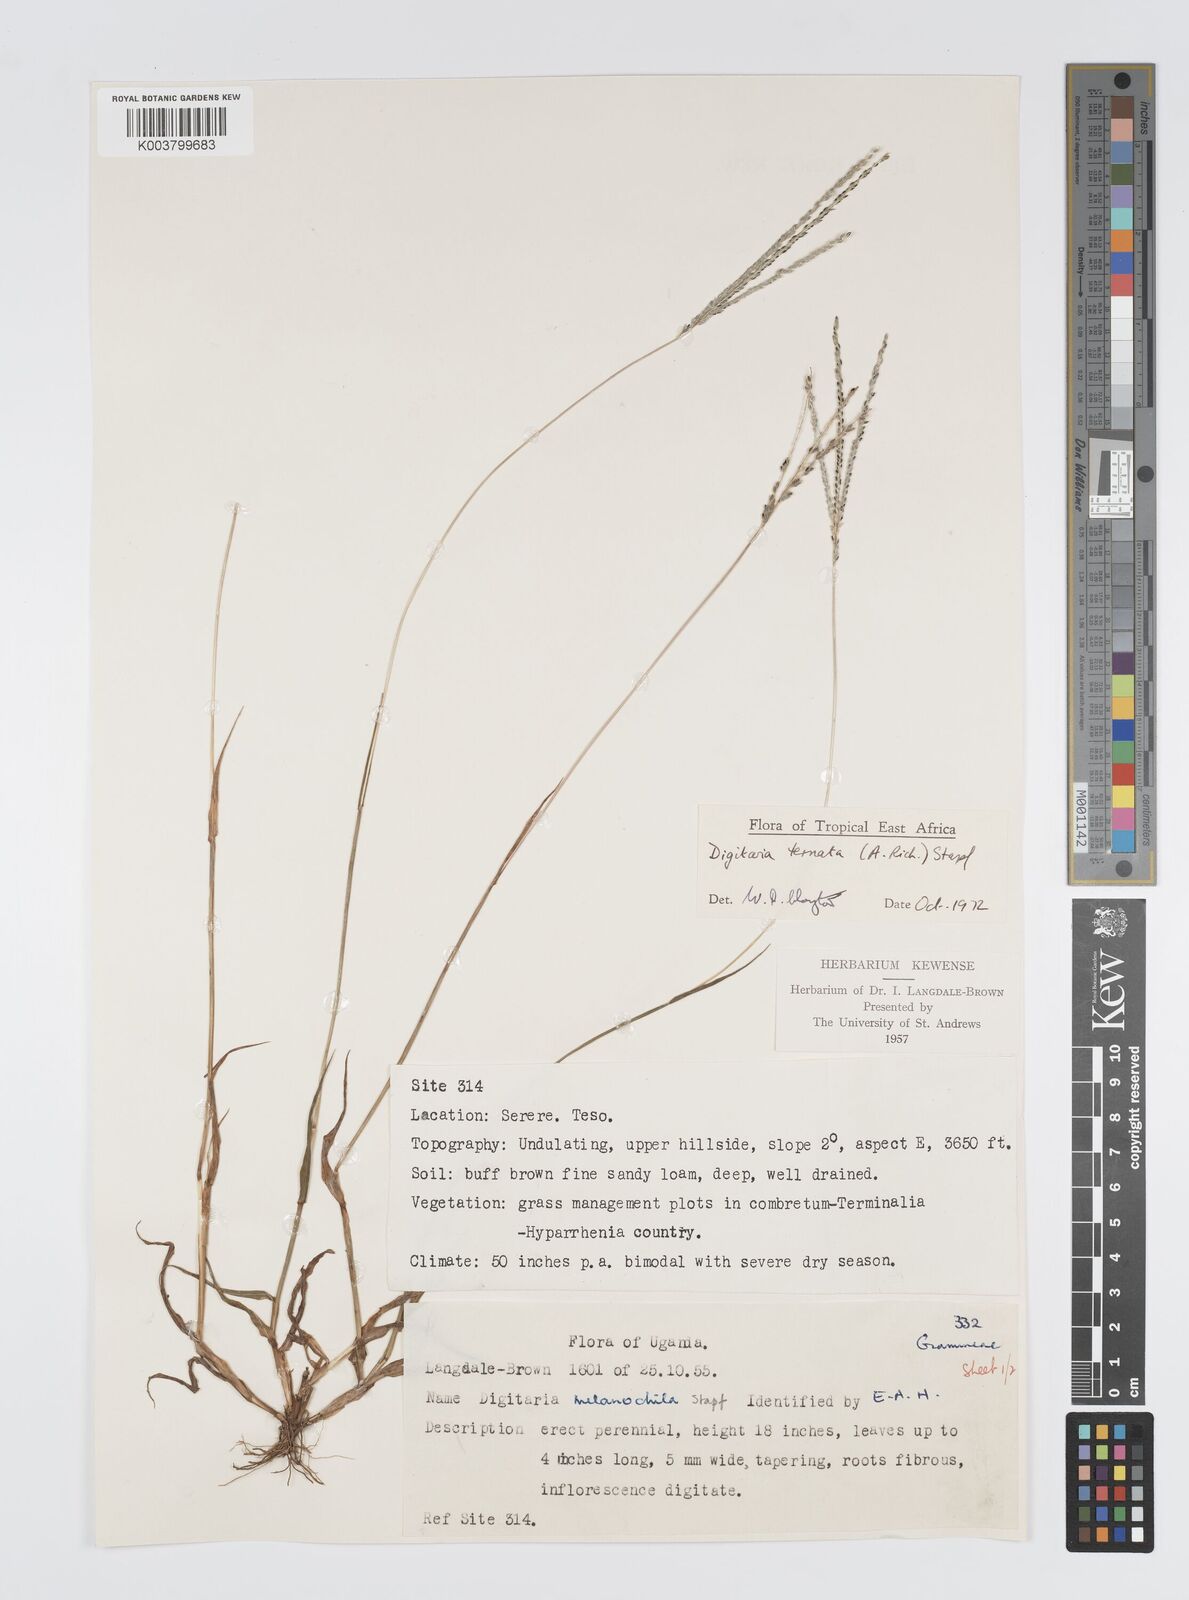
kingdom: Plantae
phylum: Tracheophyta
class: Liliopsida
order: Poales
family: Poaceae
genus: Digitaria
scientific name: Digitaria ternata
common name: Blackseed crabgrass
